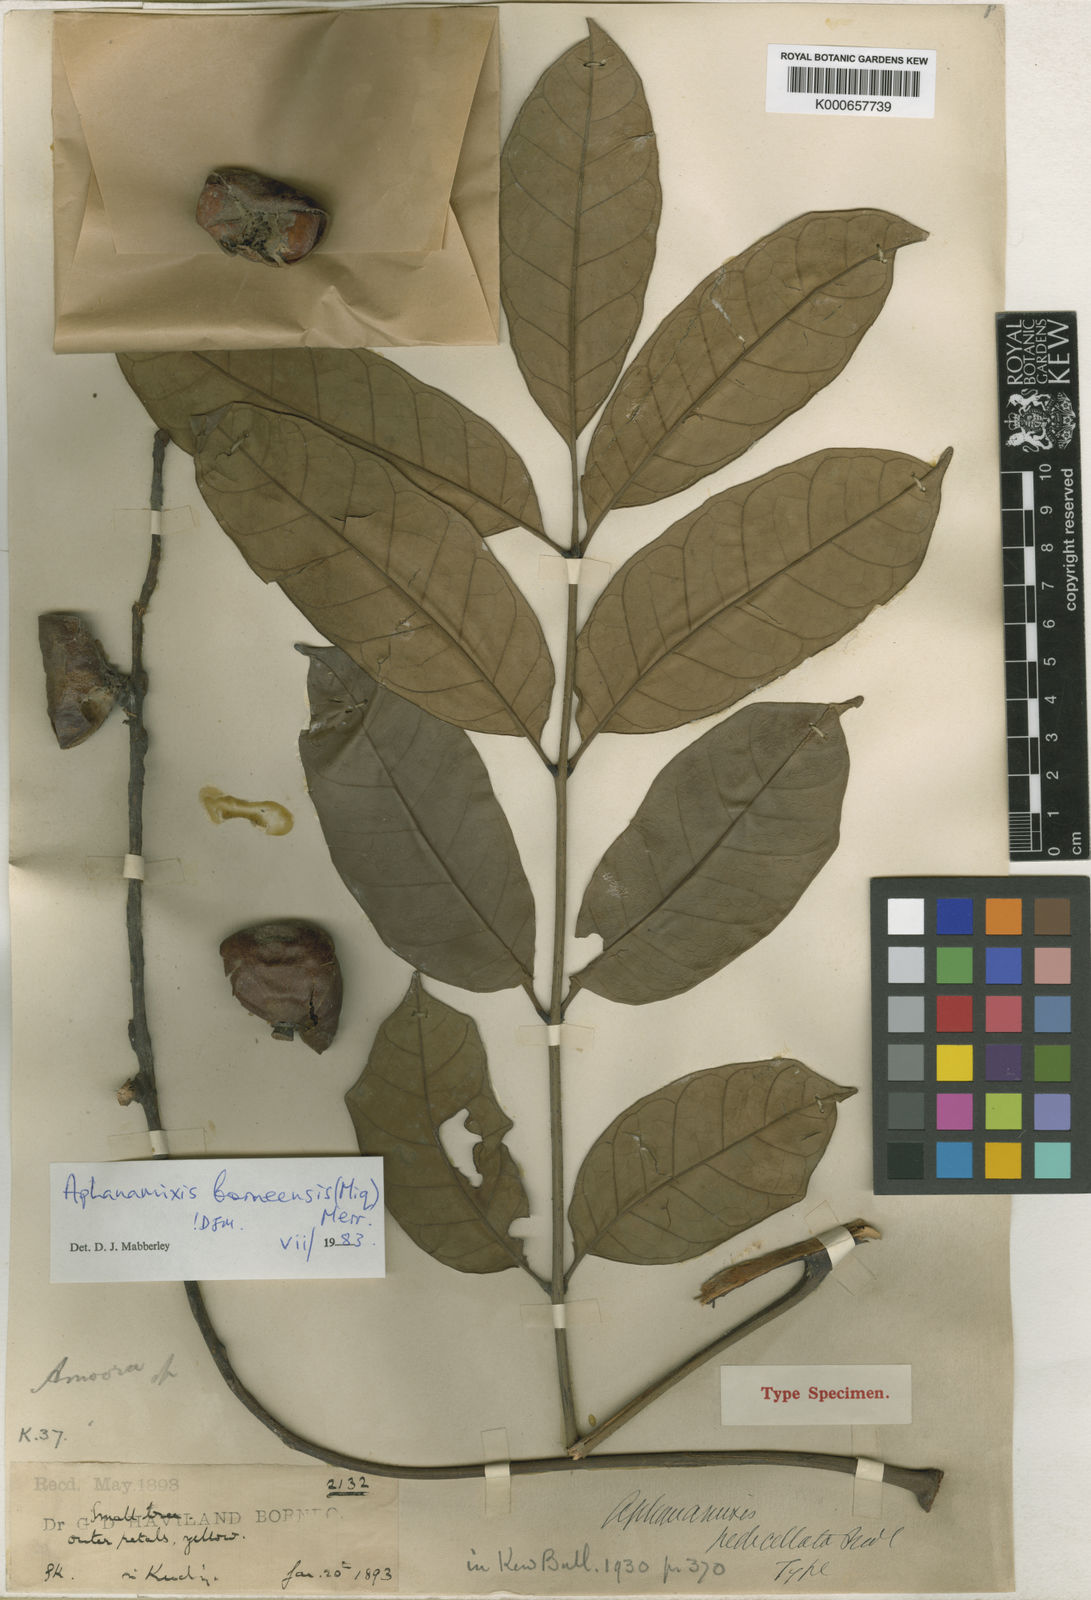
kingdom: Plantae
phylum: Tracheophyta
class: Magnoliopsida
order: Sapindales
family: Meliaceae
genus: Aphanamixis
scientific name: Aphanamixis borneensis
